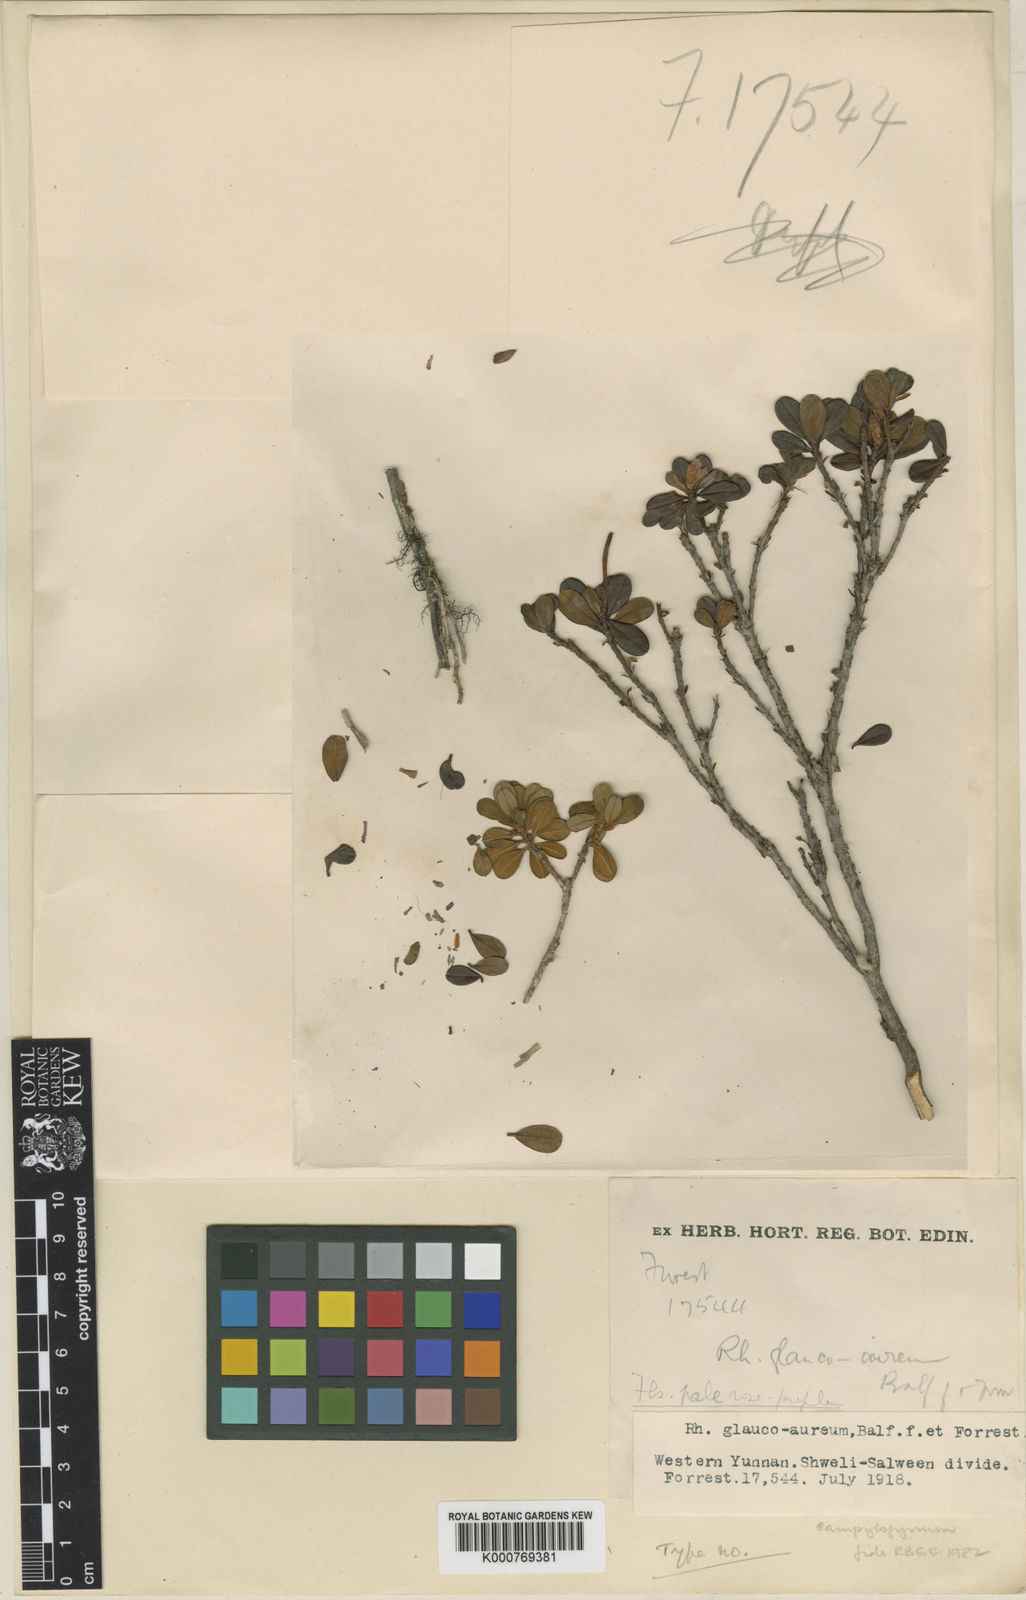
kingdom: Plantae
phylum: Tracheophyta
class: Magnoliopsida
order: Ericales
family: Ericaceae
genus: Rhododendron
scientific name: Rhododendron campylogynum
